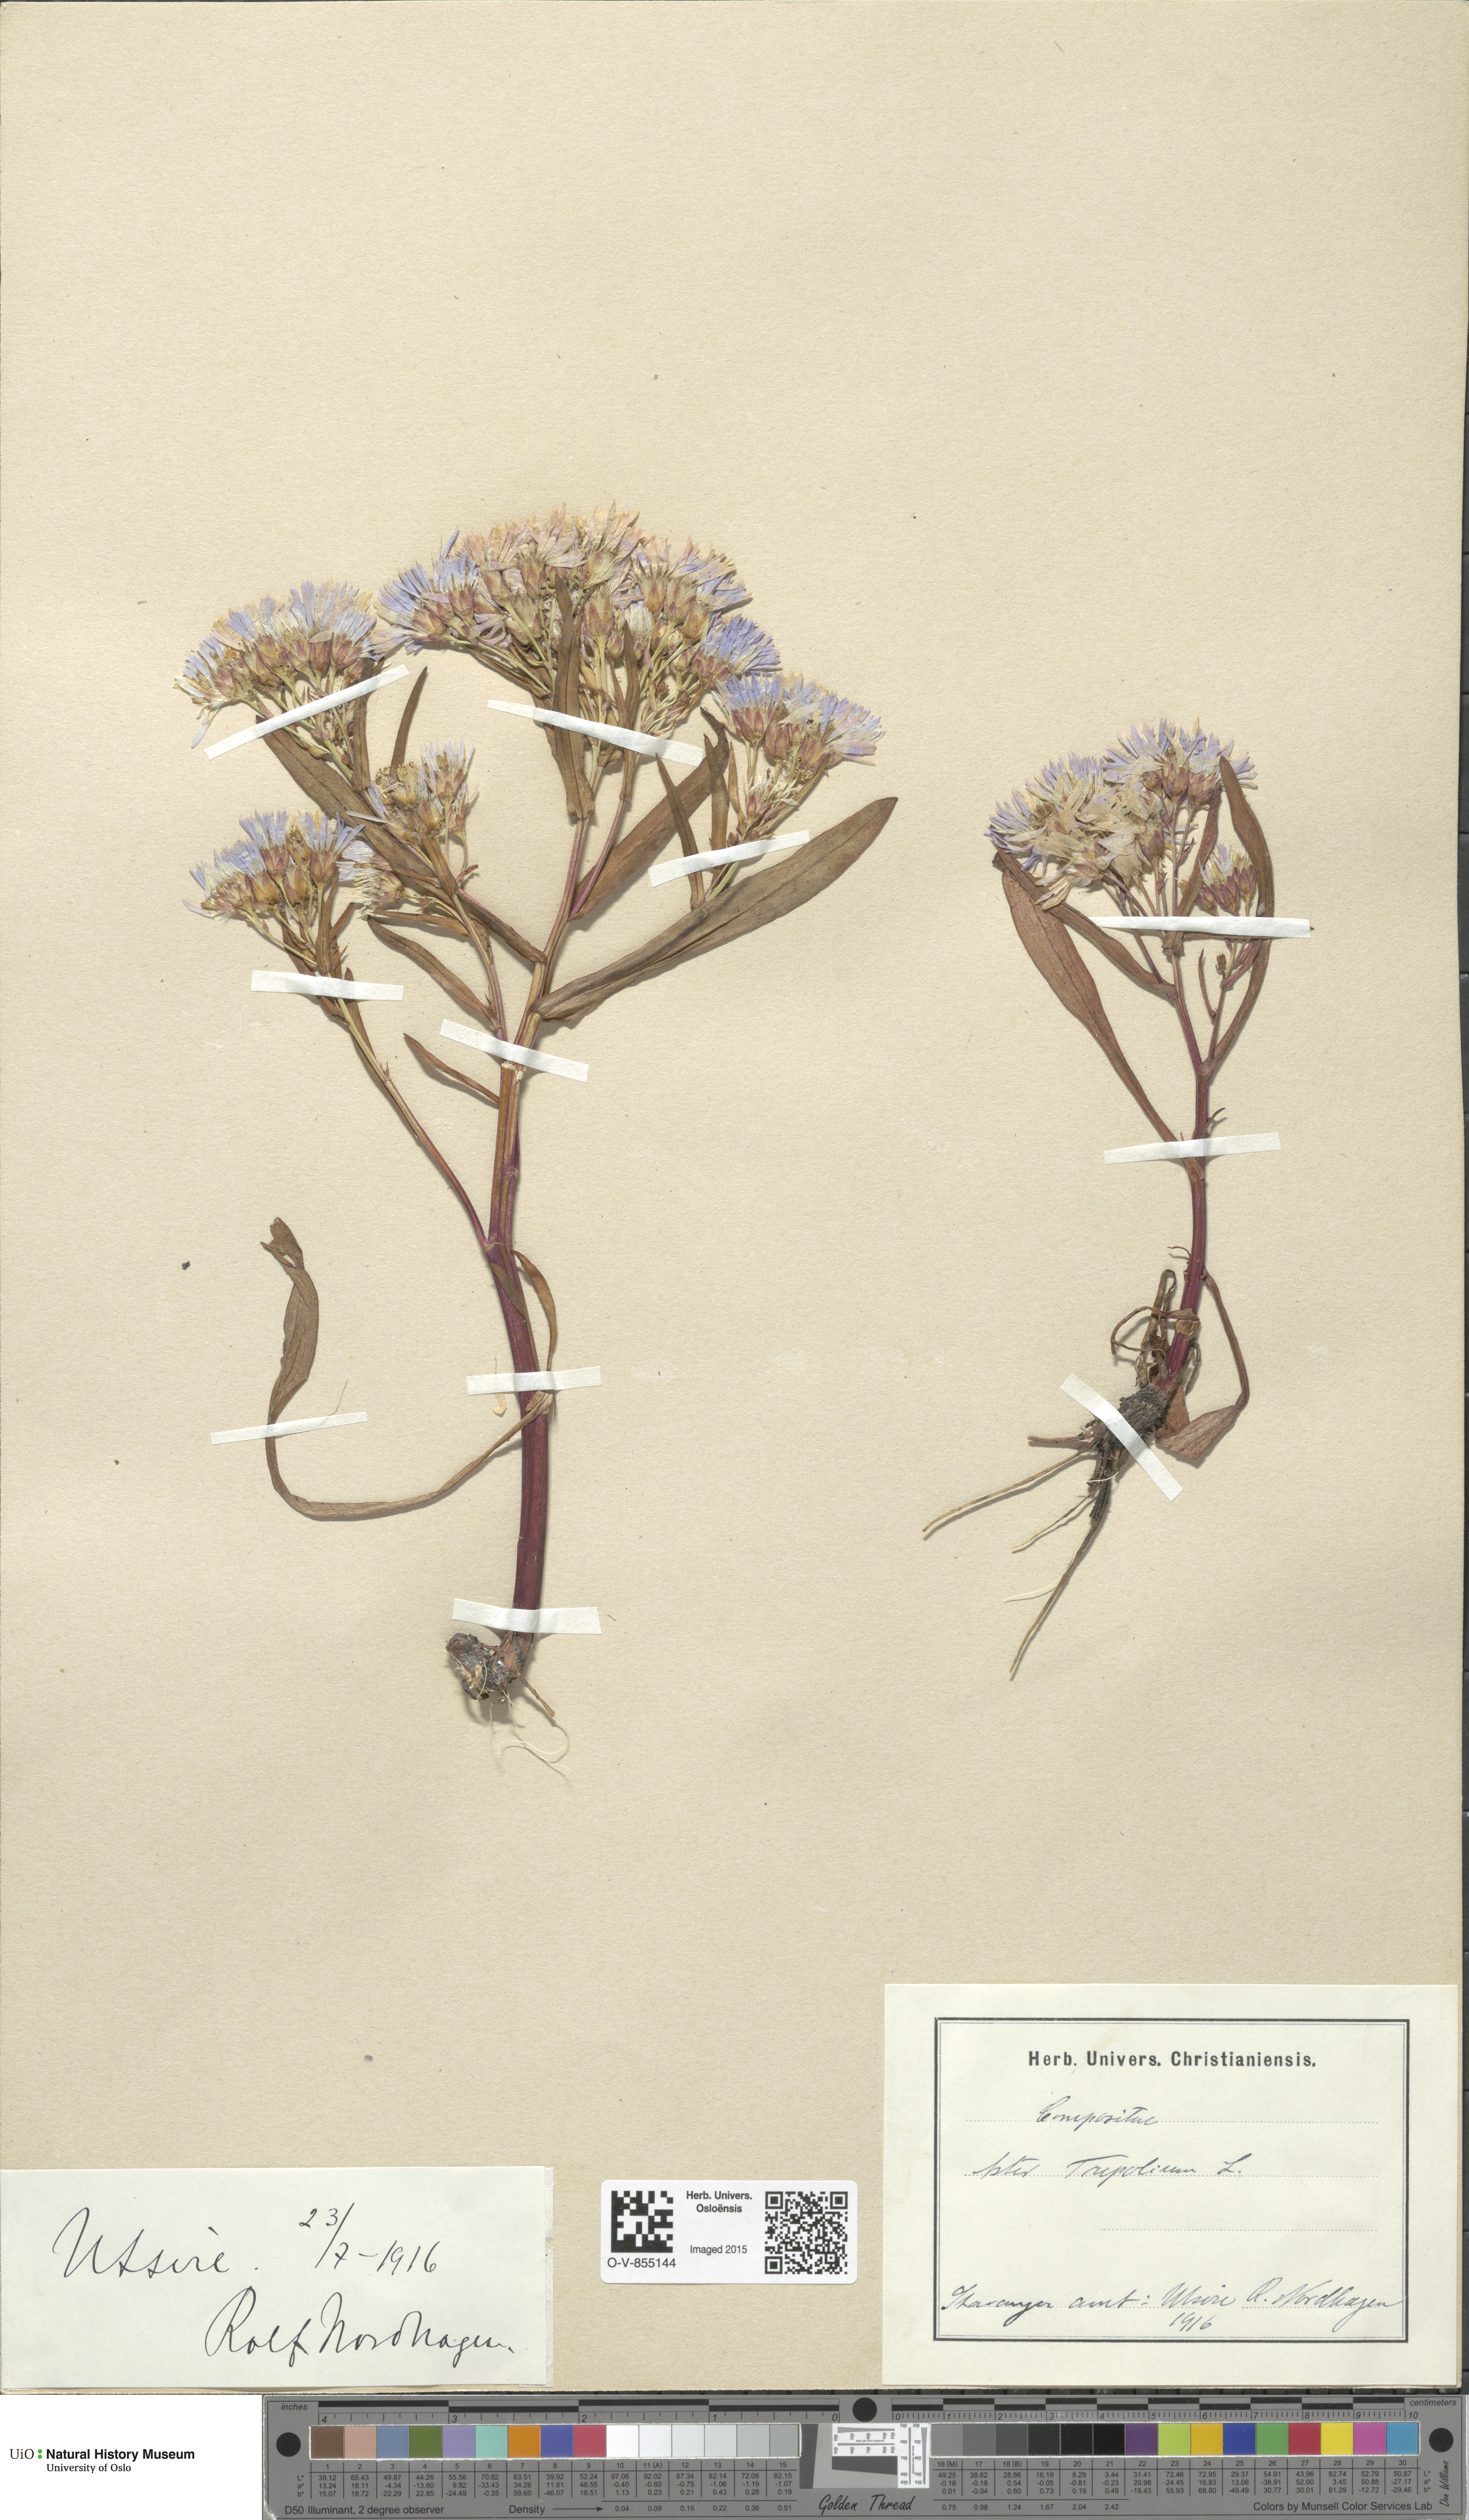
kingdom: Plantae
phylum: Tracheophyta
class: Magnoliopsida
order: Asterales
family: Asteraceae
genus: Tripolium
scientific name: Tripolium pannonicum
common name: Sea aster
